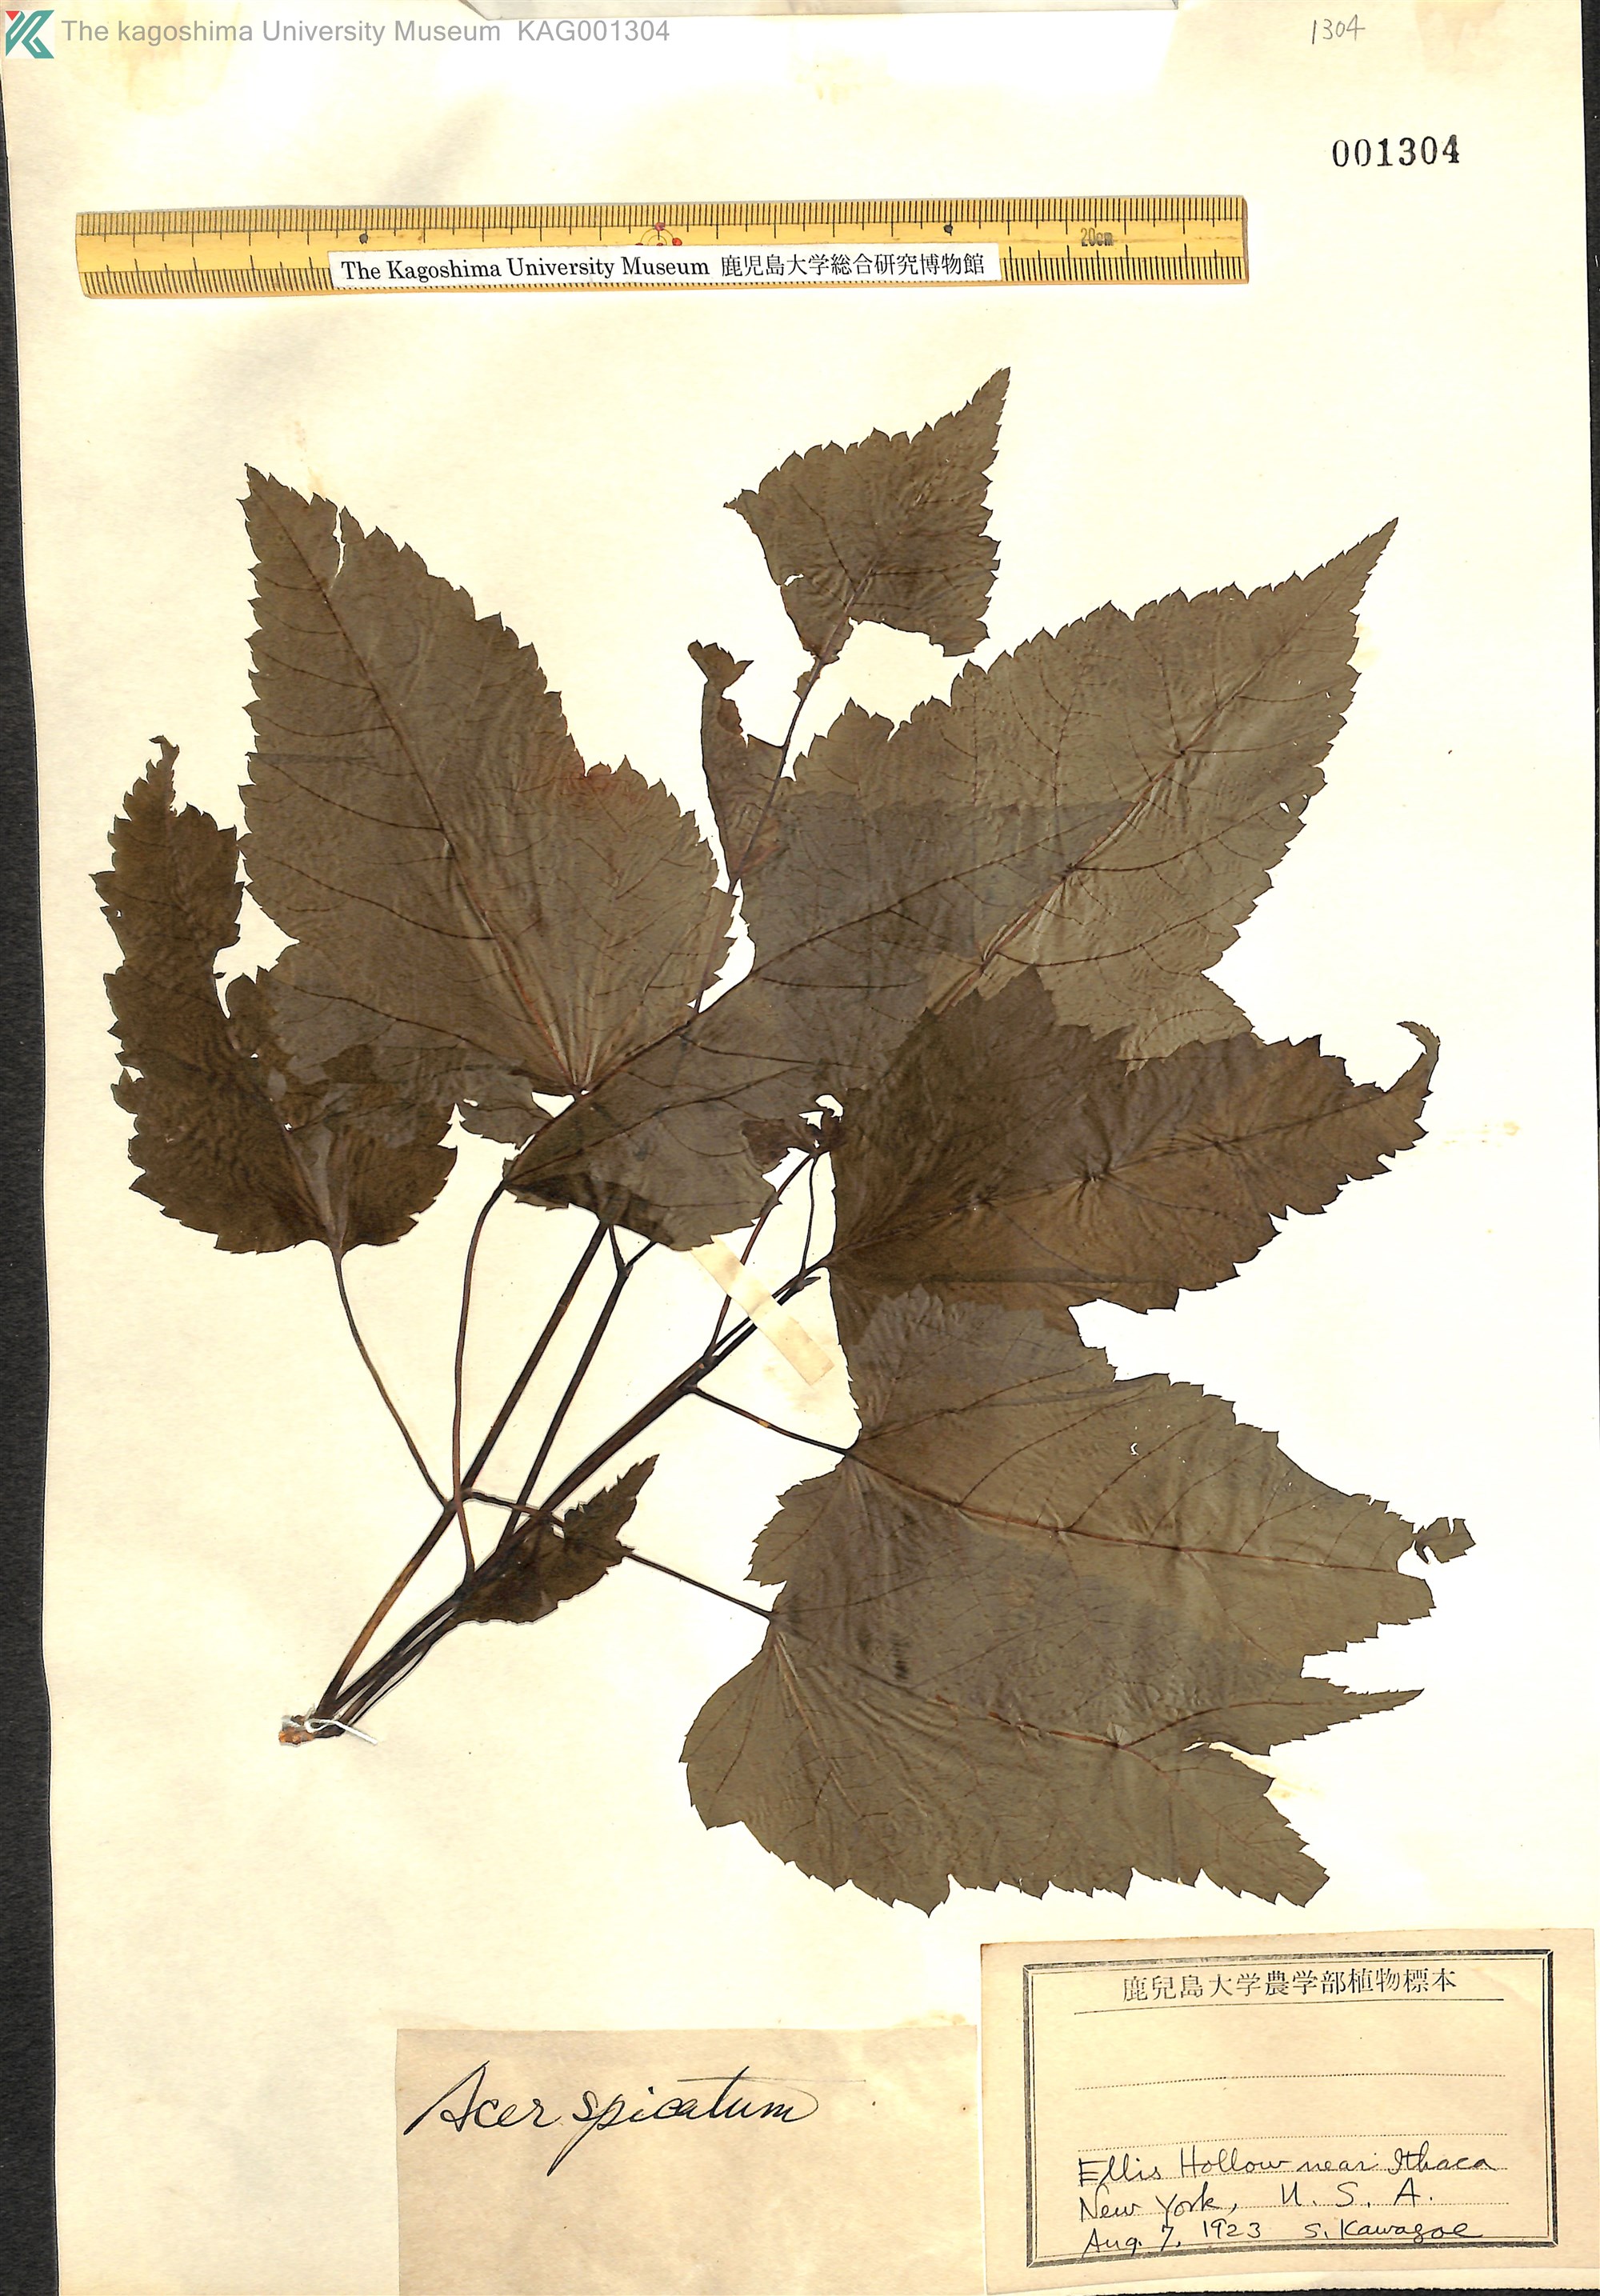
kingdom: Plantae
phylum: Tracheophyta
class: Magnoliopsida
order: Sapindales
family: Sapindaceae
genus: Acer
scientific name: Acer spicatum
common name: Mountain maple
